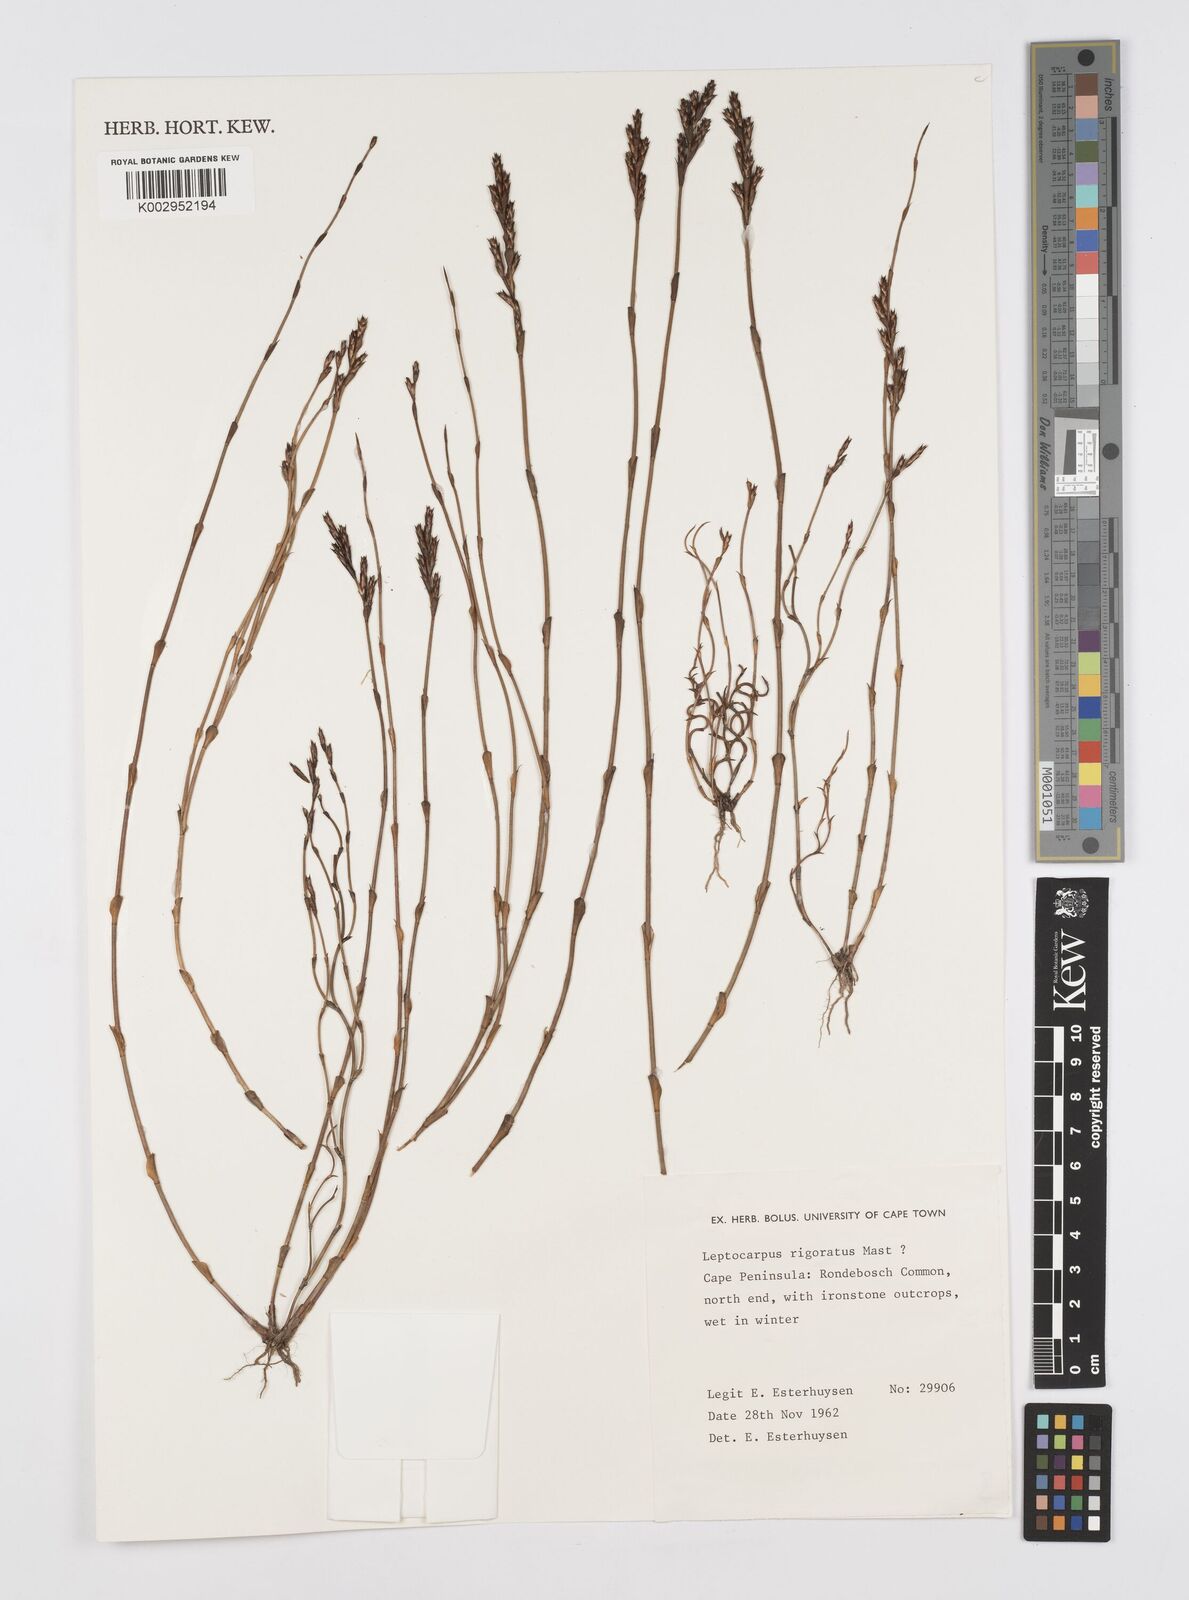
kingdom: Plantae
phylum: Tracheophyta
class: Liliopsida
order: Poales
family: Restionaceae
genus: Restio
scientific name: Restio rigoratus
